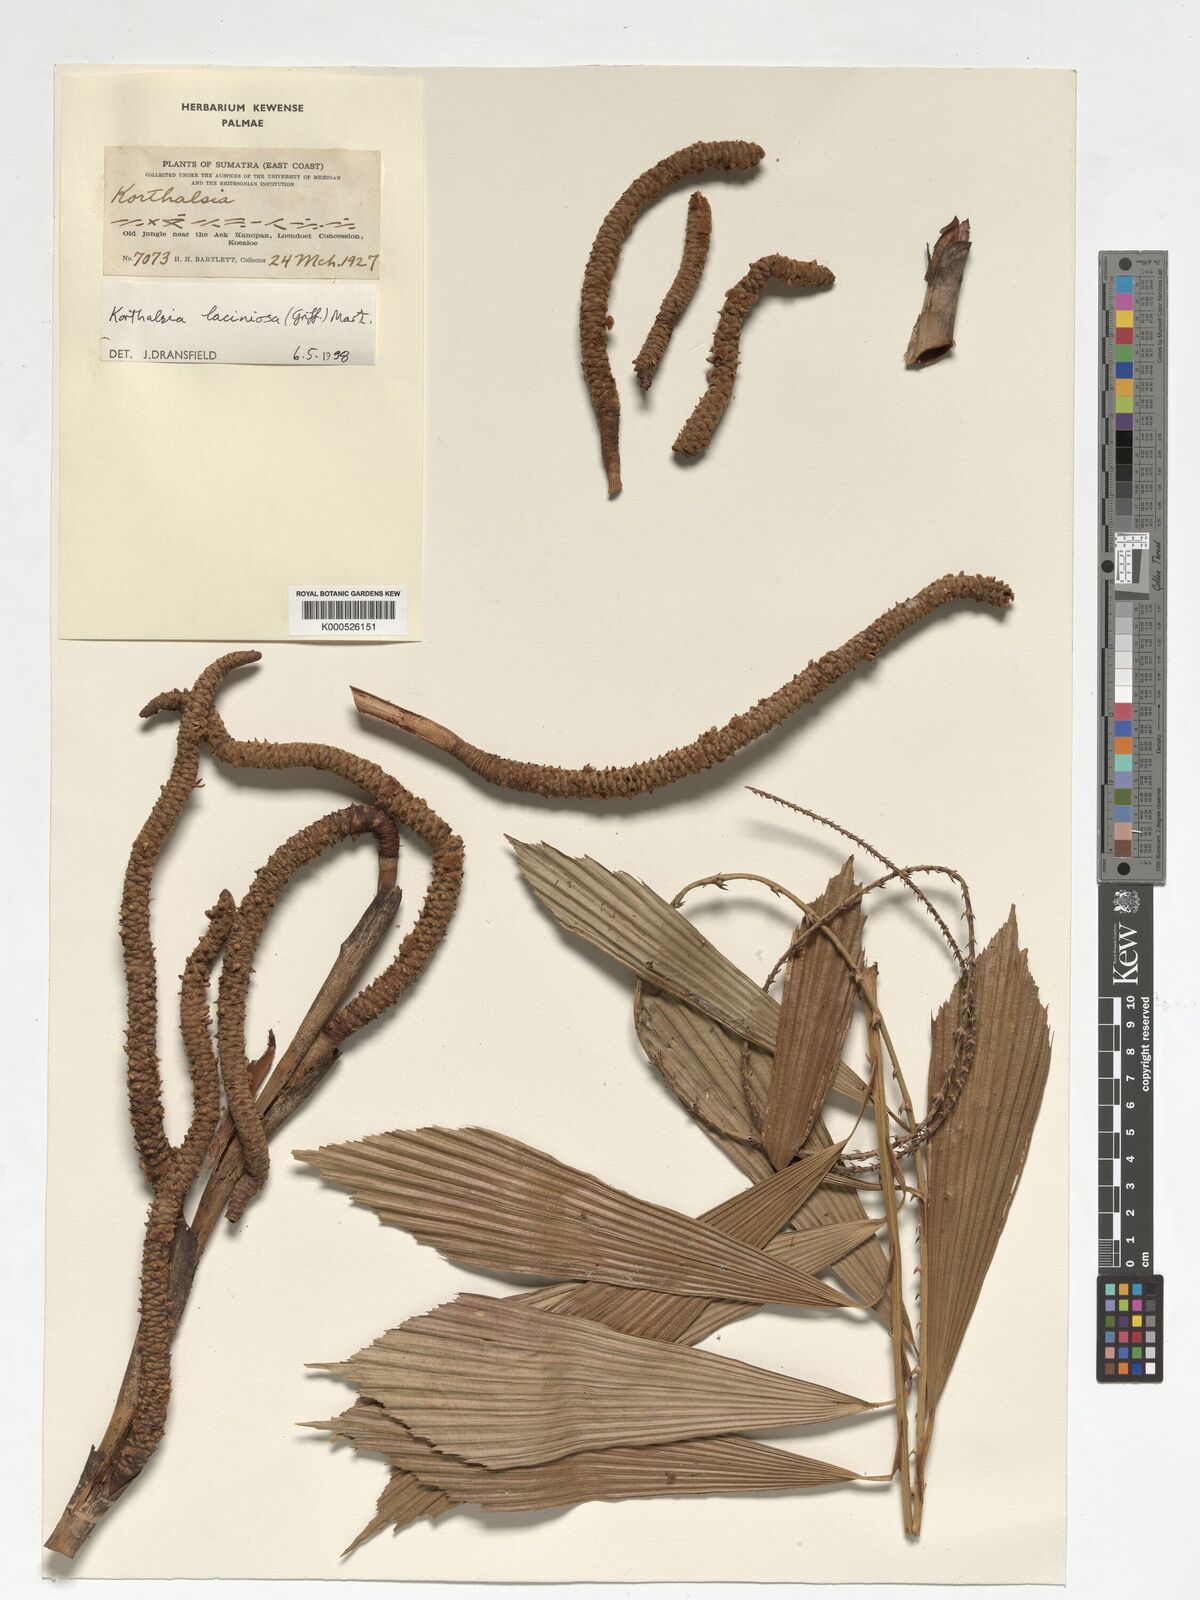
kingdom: Plantae
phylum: Tracheophyta
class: Liliopsida
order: Arecales
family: Arecaceae
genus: Korthalsia
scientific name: Korthalsia laciniosa
